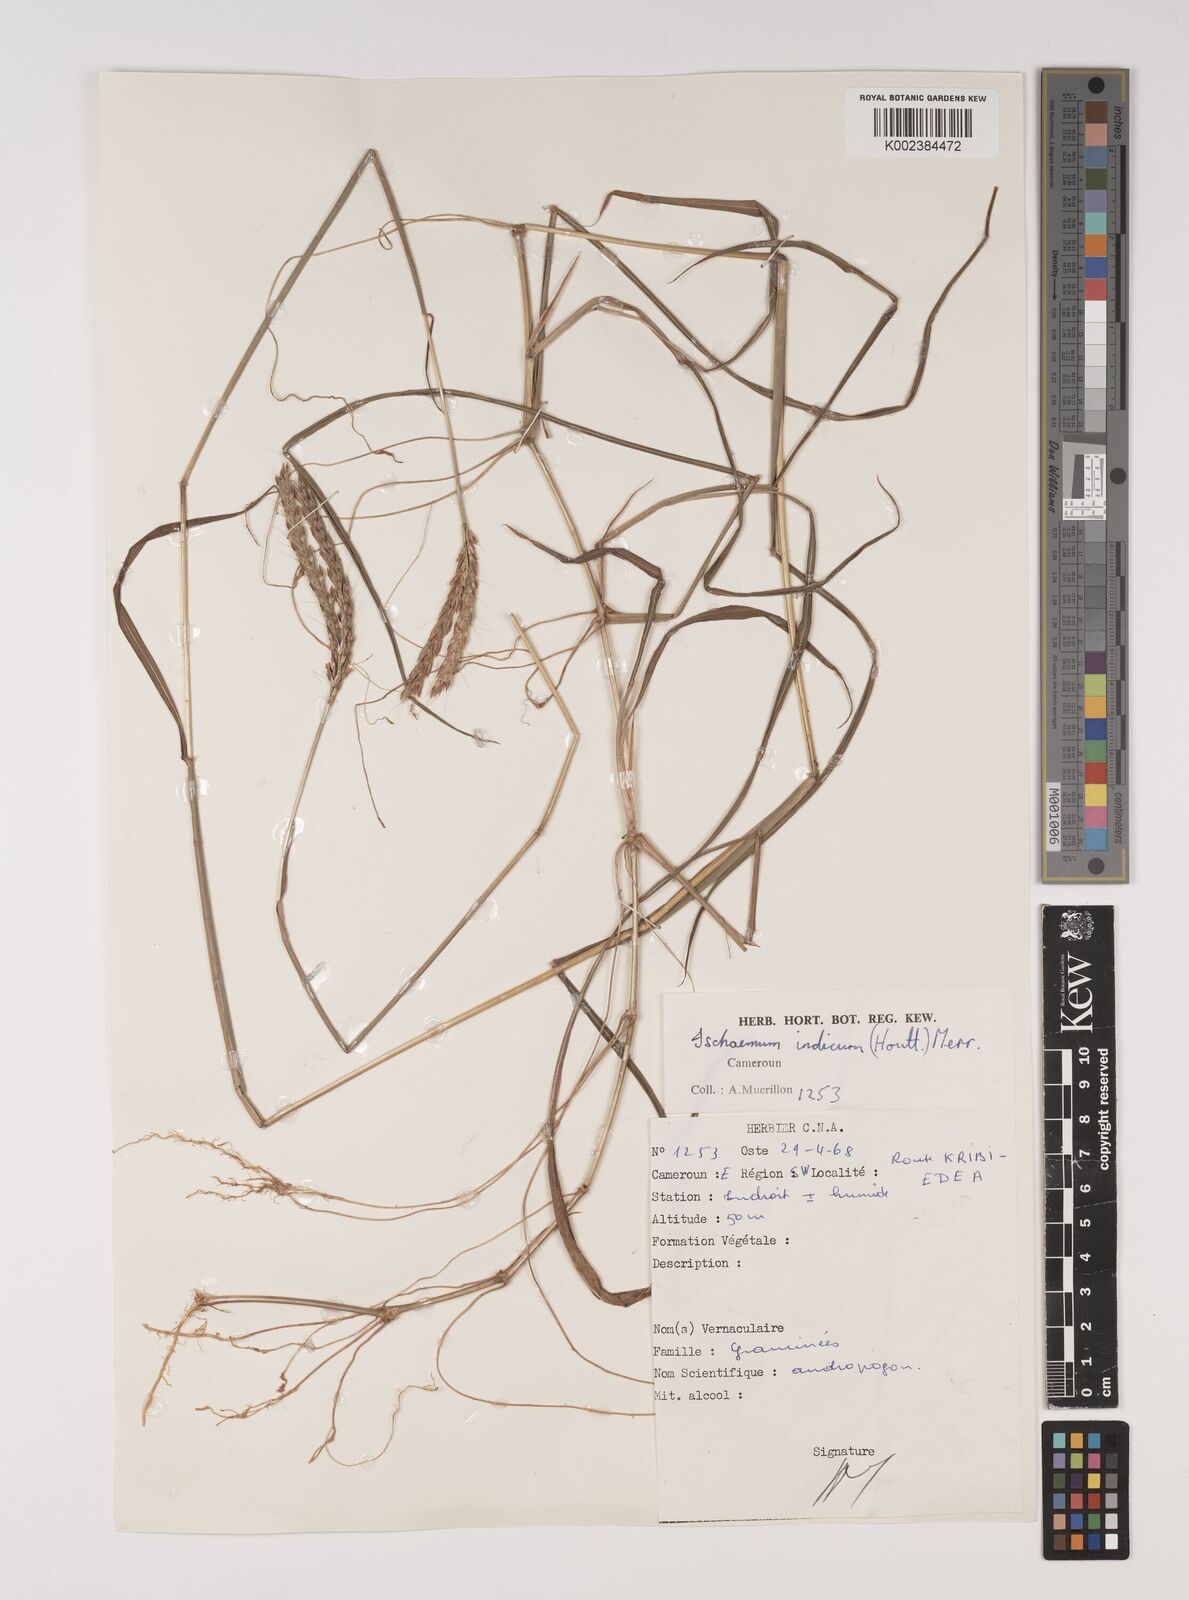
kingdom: Plantae
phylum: Tracheophyta
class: Liliopsida
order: Poales
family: Poaceae
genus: Polytrias
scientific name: Polytrias indica
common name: Indian murainagrass
